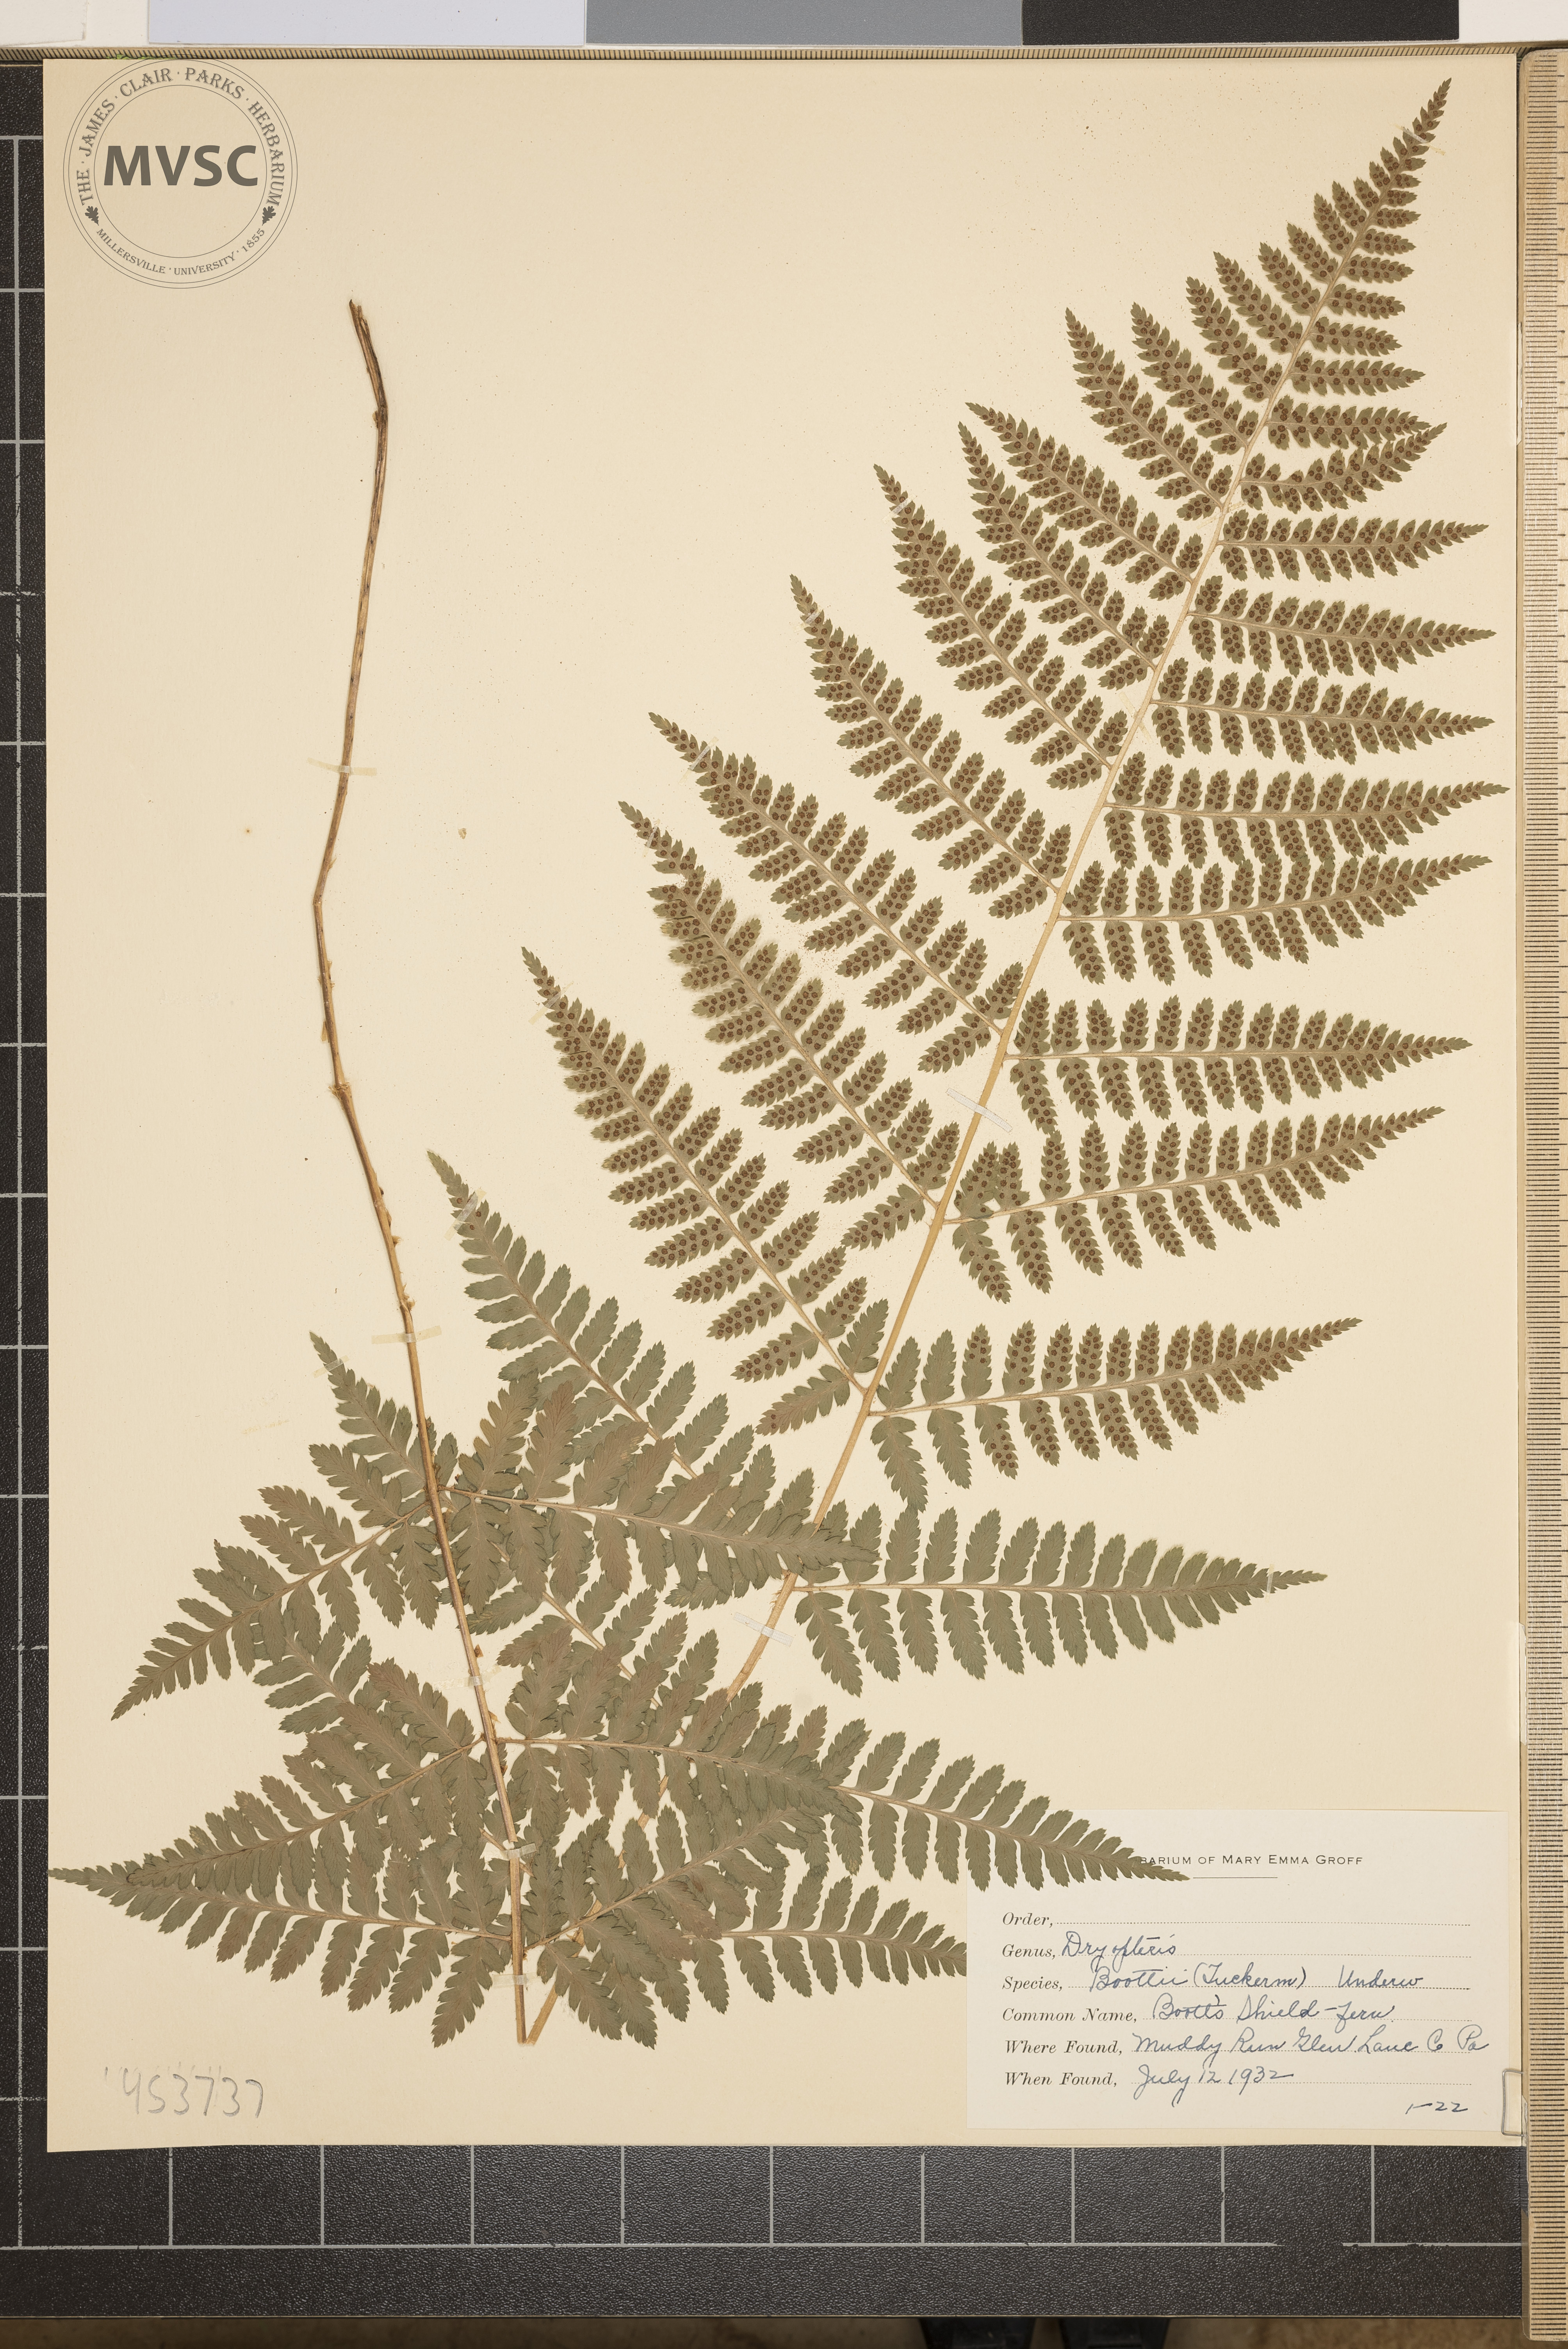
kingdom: Plantae
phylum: Tracheophyta
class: Polypodiopsida
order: Polypodiales
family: Dryopteridaceae
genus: Dryopteris
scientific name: Dryopteris boottii
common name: Boott's Shield Fern
